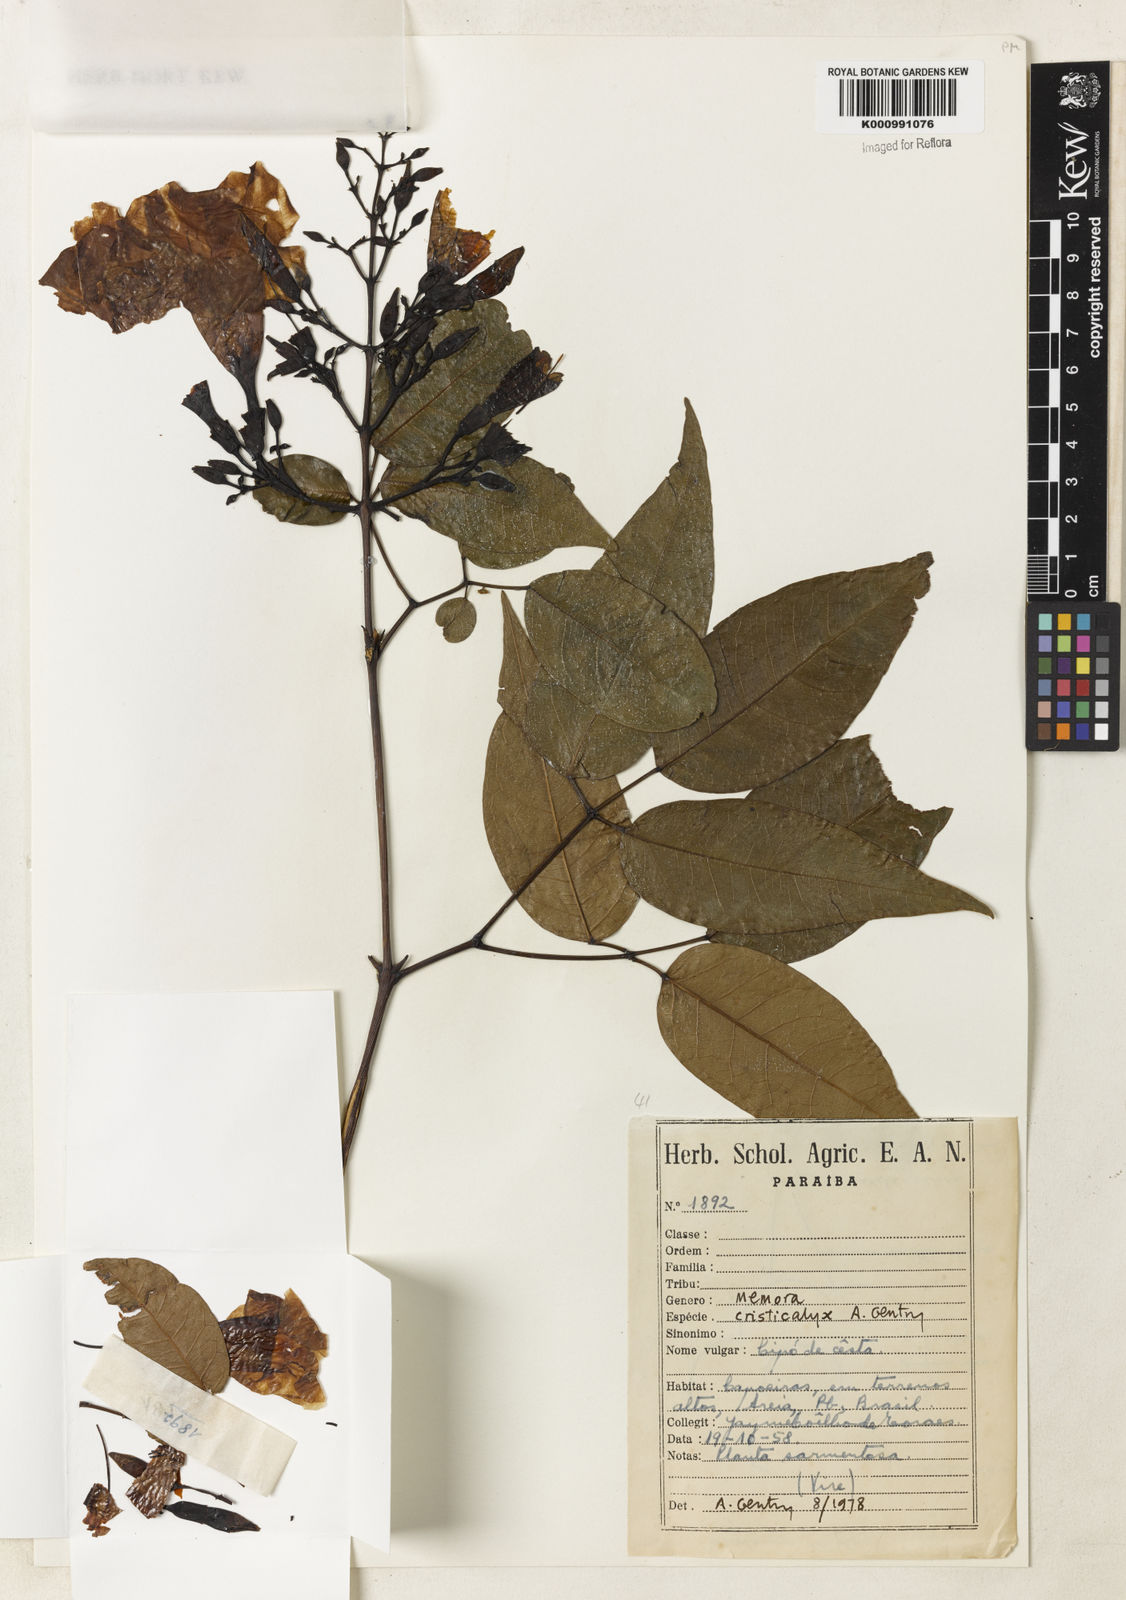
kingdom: Plantae
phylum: Tracheophyta
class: Magnoliopsida
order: Lamiales
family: Bignoniaceae
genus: Adenocalymma
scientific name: Adenocalymma cristicalyx
